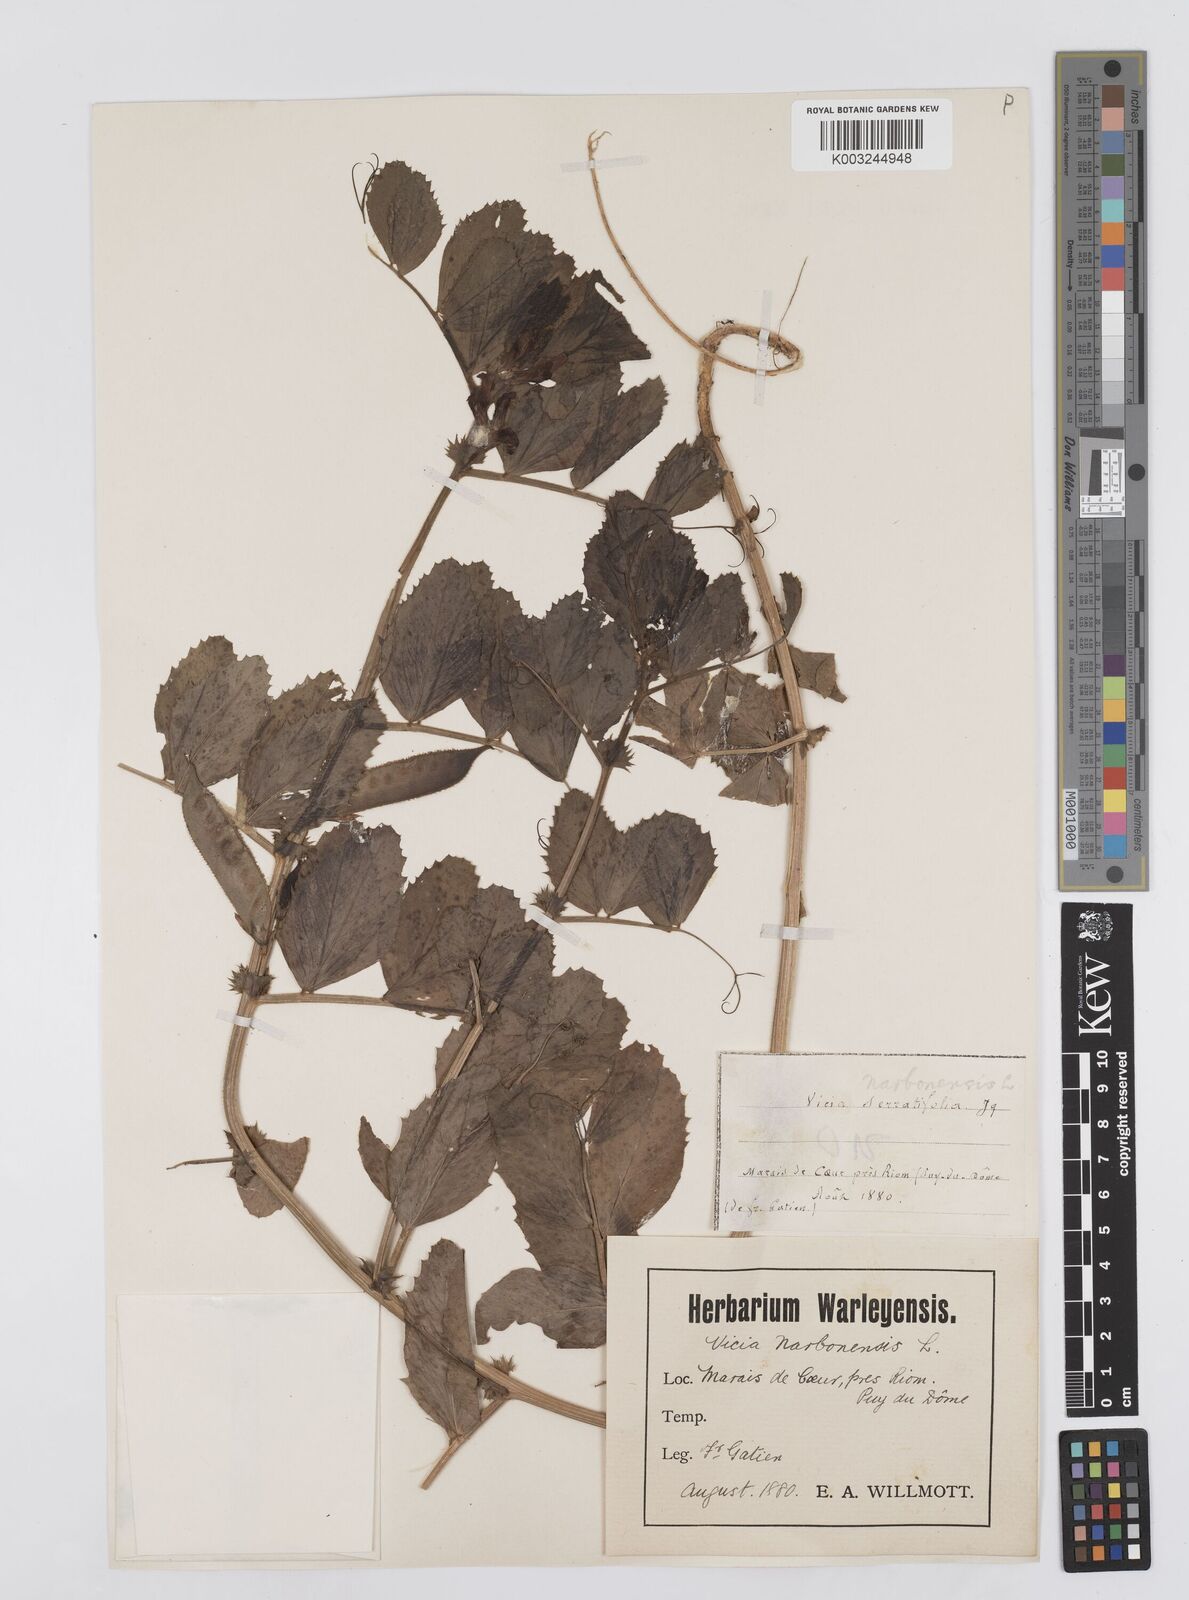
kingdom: Plantae
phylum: Tracheophyta
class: Magnoliopsida
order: Fabales
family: Fabaceae
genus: Vicia
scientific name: Vicia serratifolia
